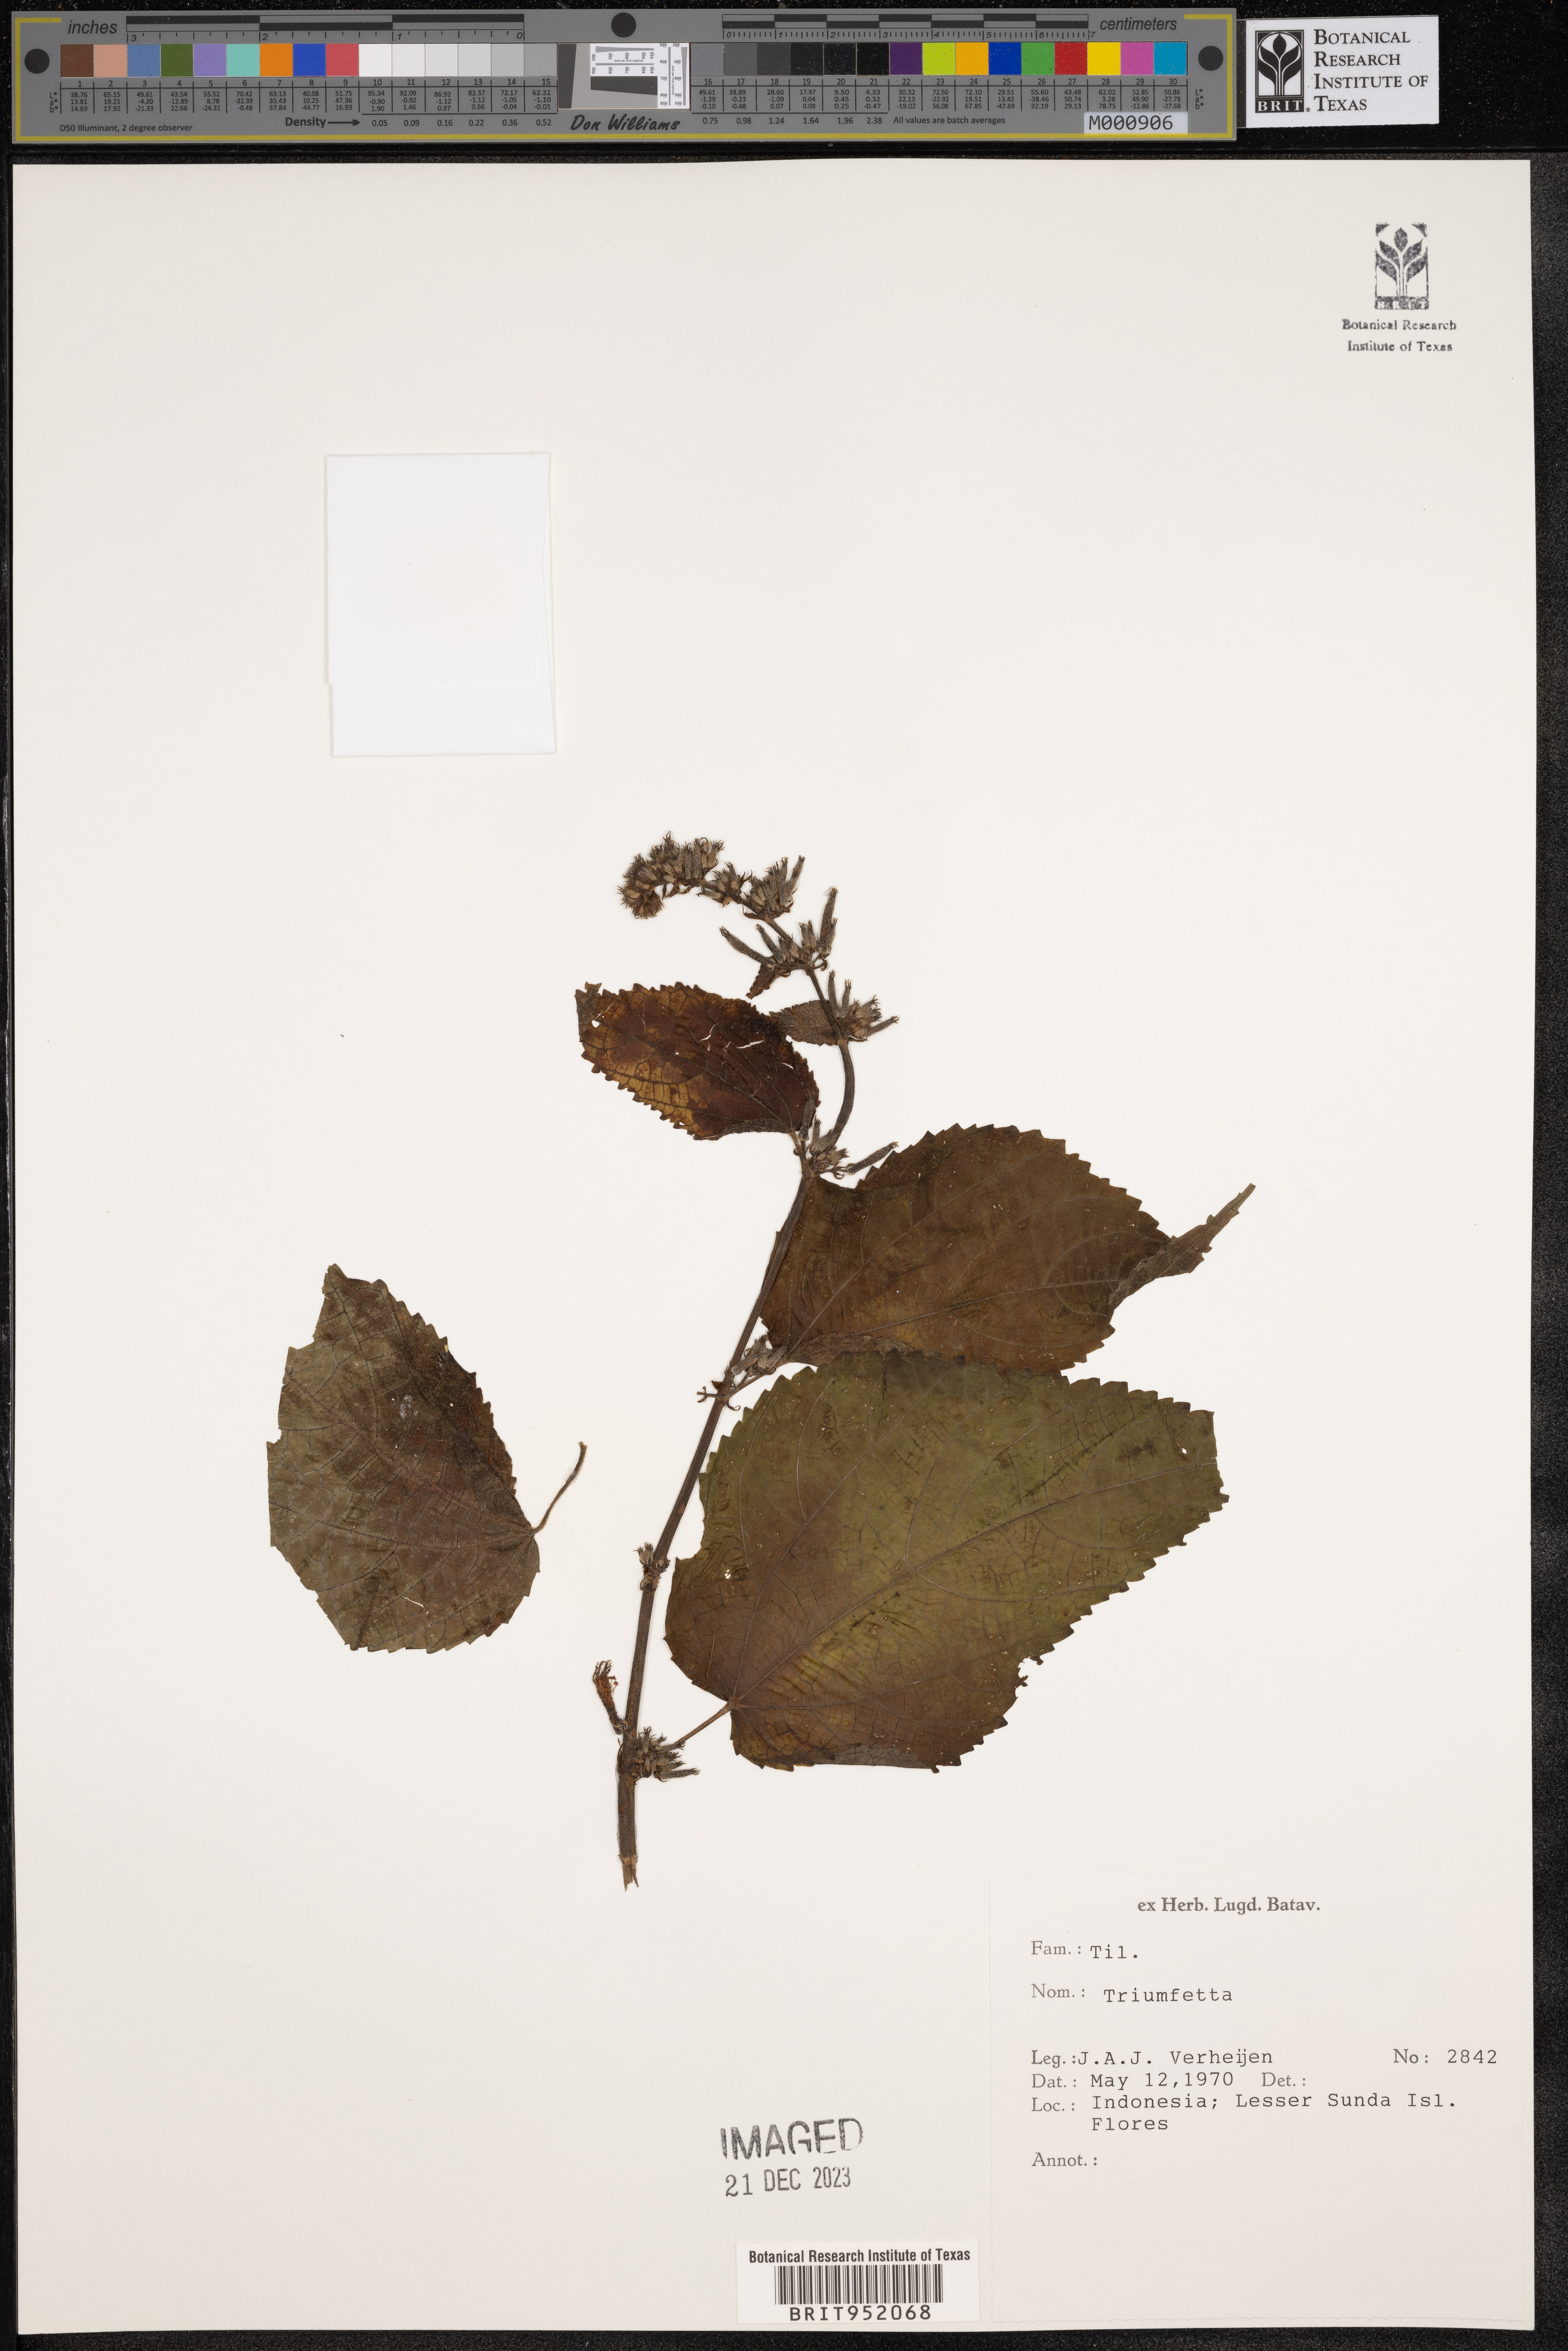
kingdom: Plantae
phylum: Tracheophyta
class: Magnoliopsida
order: Malvales
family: Malvaceae
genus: Triumfetta
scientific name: Triumfetta
